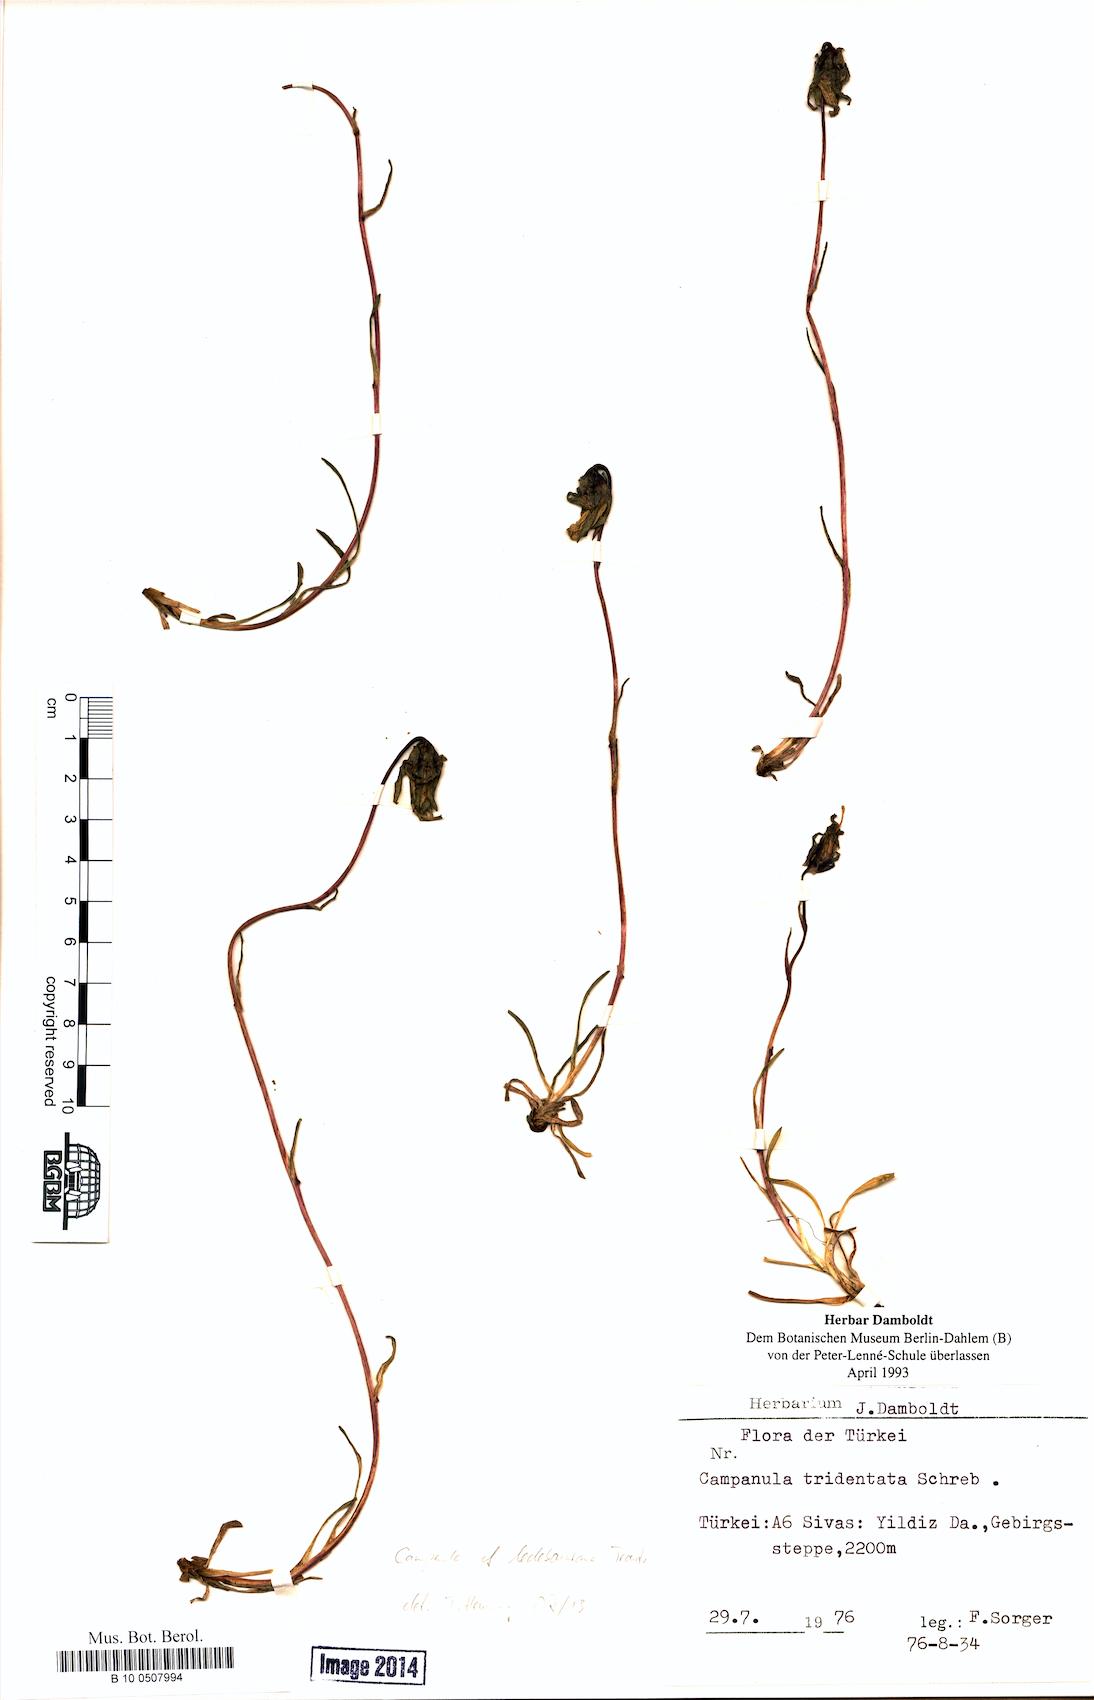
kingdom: Plantae
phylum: Tracheophyta
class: Magnoliopsida
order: Asterales
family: Campanulaceae
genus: Campanula
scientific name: Campanula tridentata
